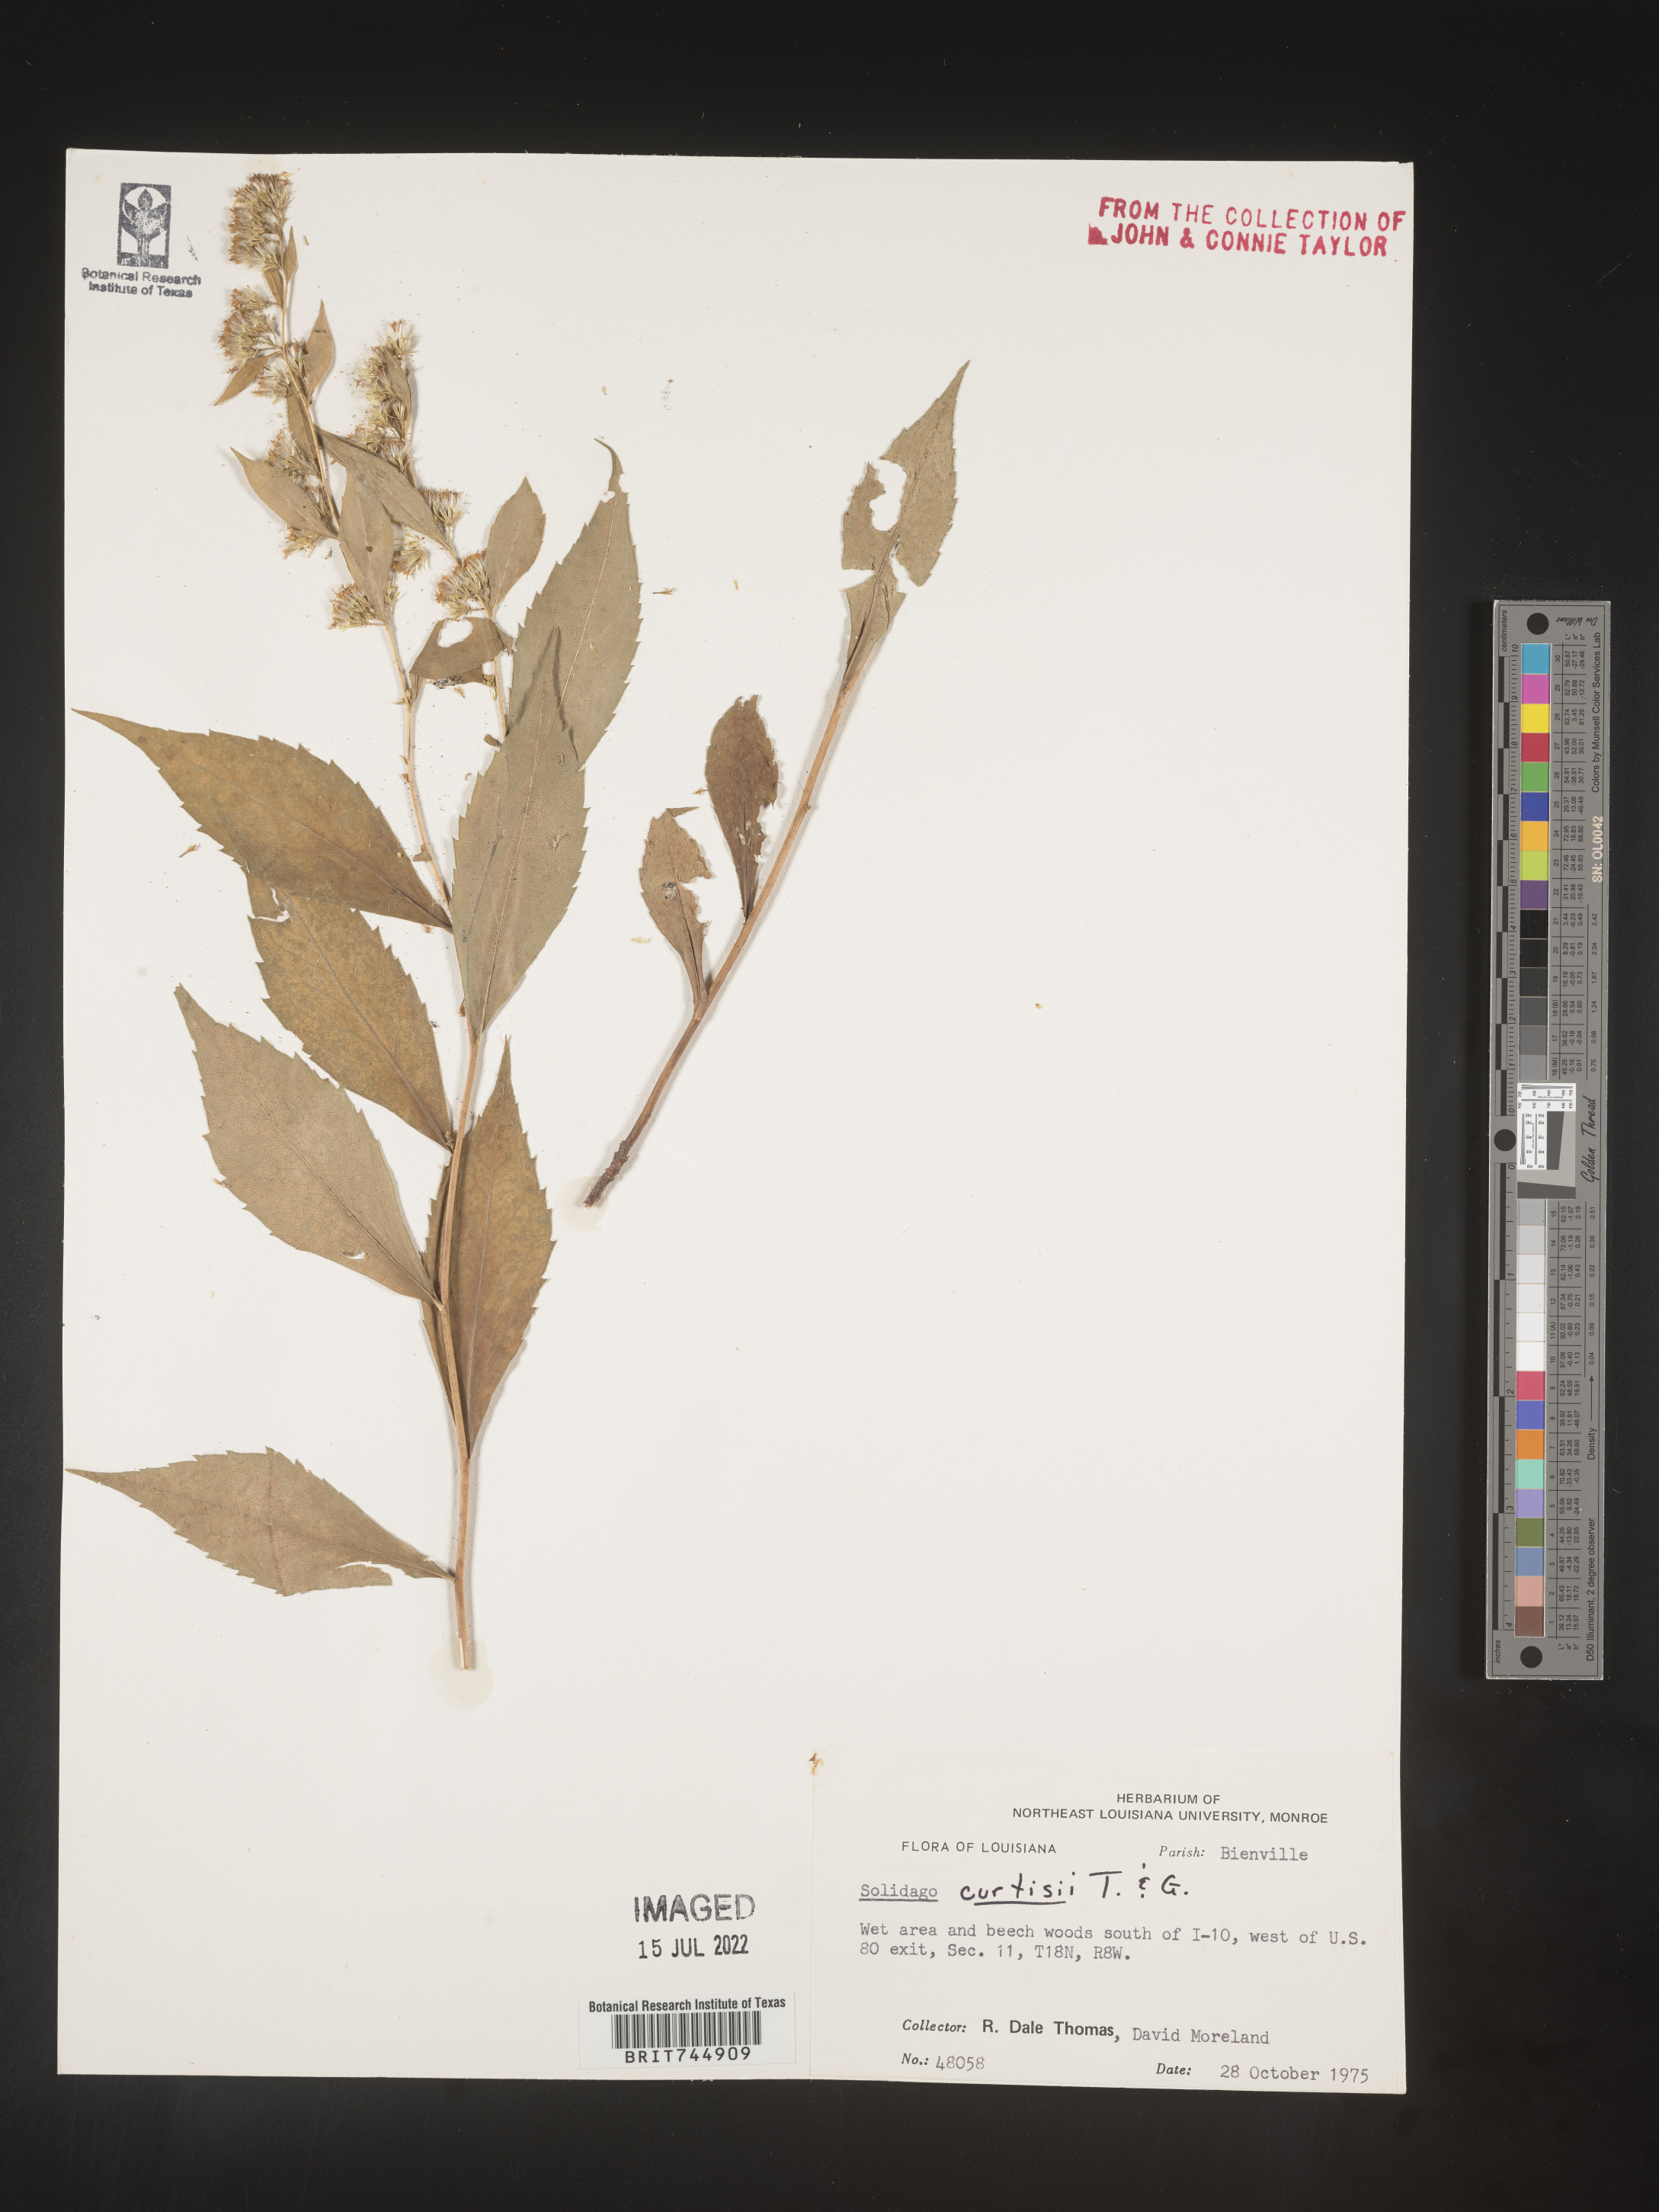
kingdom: Plantae
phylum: Tracheophyta
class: Magnoliopsida
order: Asterales
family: Asteraceae
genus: Solidago
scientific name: Solidago curtisii
